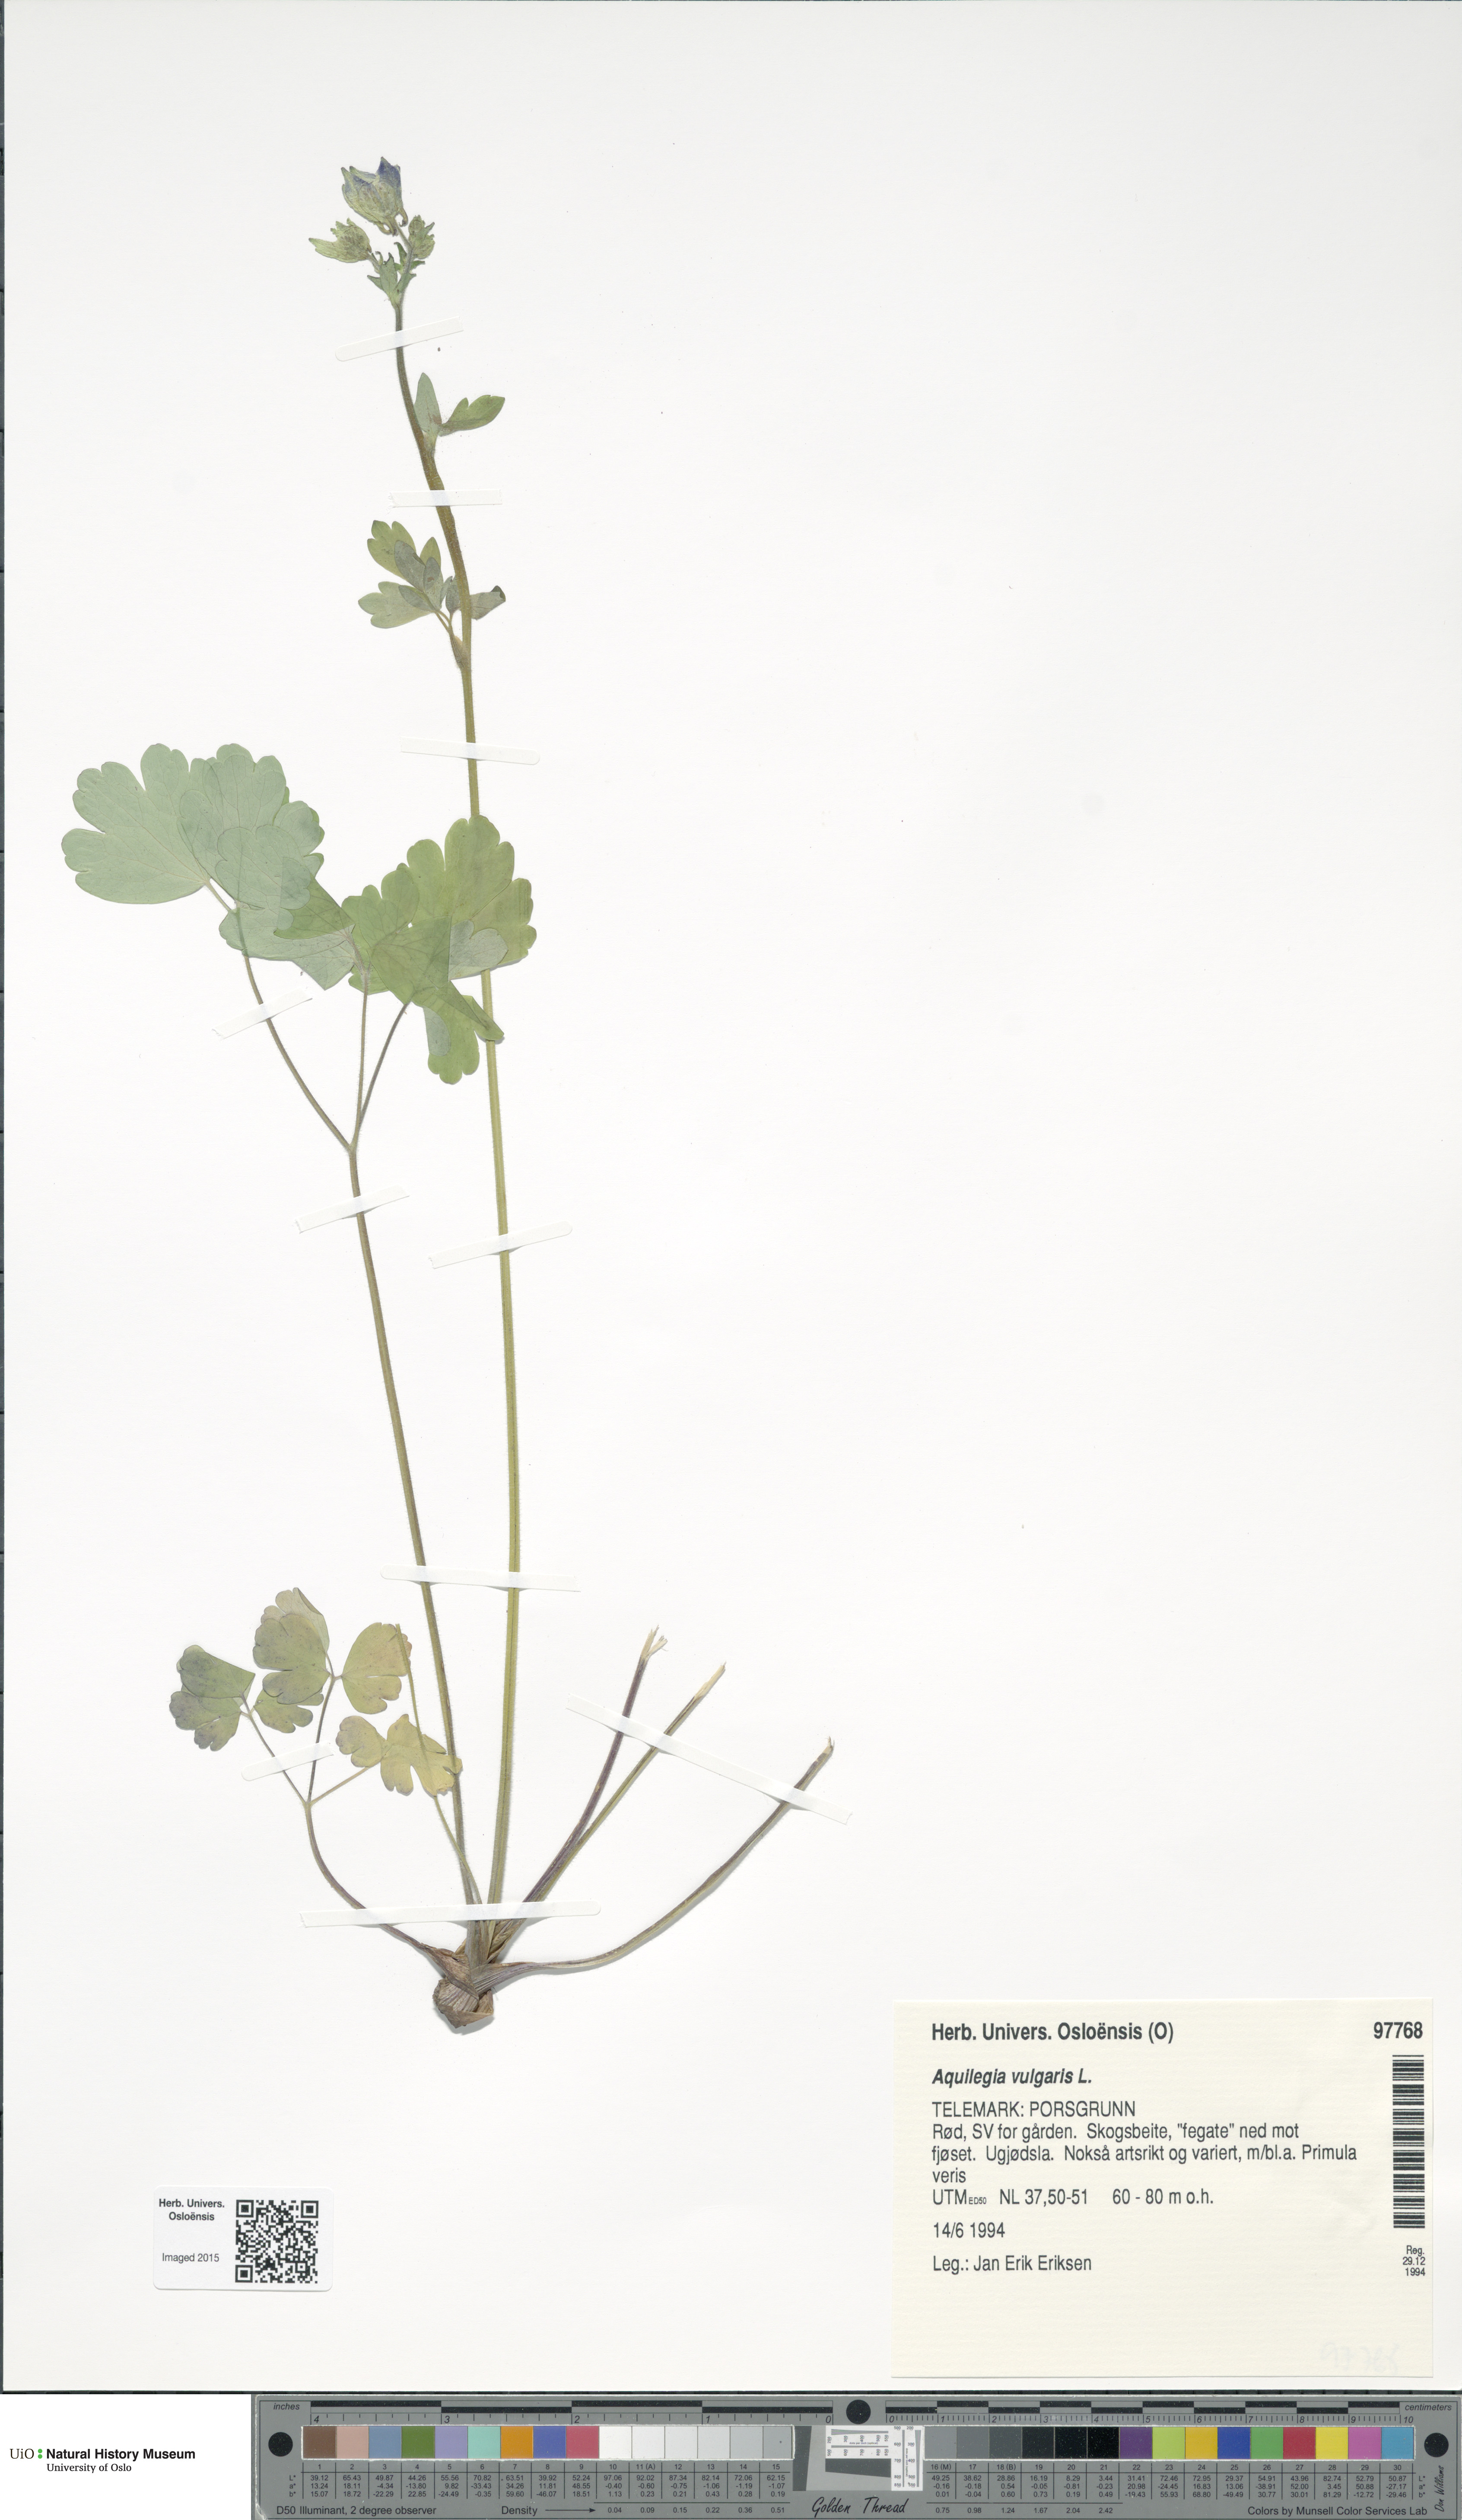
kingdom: Plantae
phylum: Tracheophyta
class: Magnoliopsida
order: Ranunculales
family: Ranunculaceae
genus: Aquilegia
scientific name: Aquilegia vulgaris
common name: Columbine
